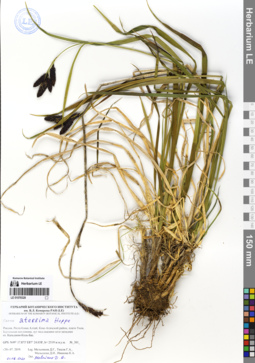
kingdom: Plantae
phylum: Tracheophyta
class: Liliopsida
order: Poales
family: Cyperaceae
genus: Carex
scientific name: Carex aterrima
